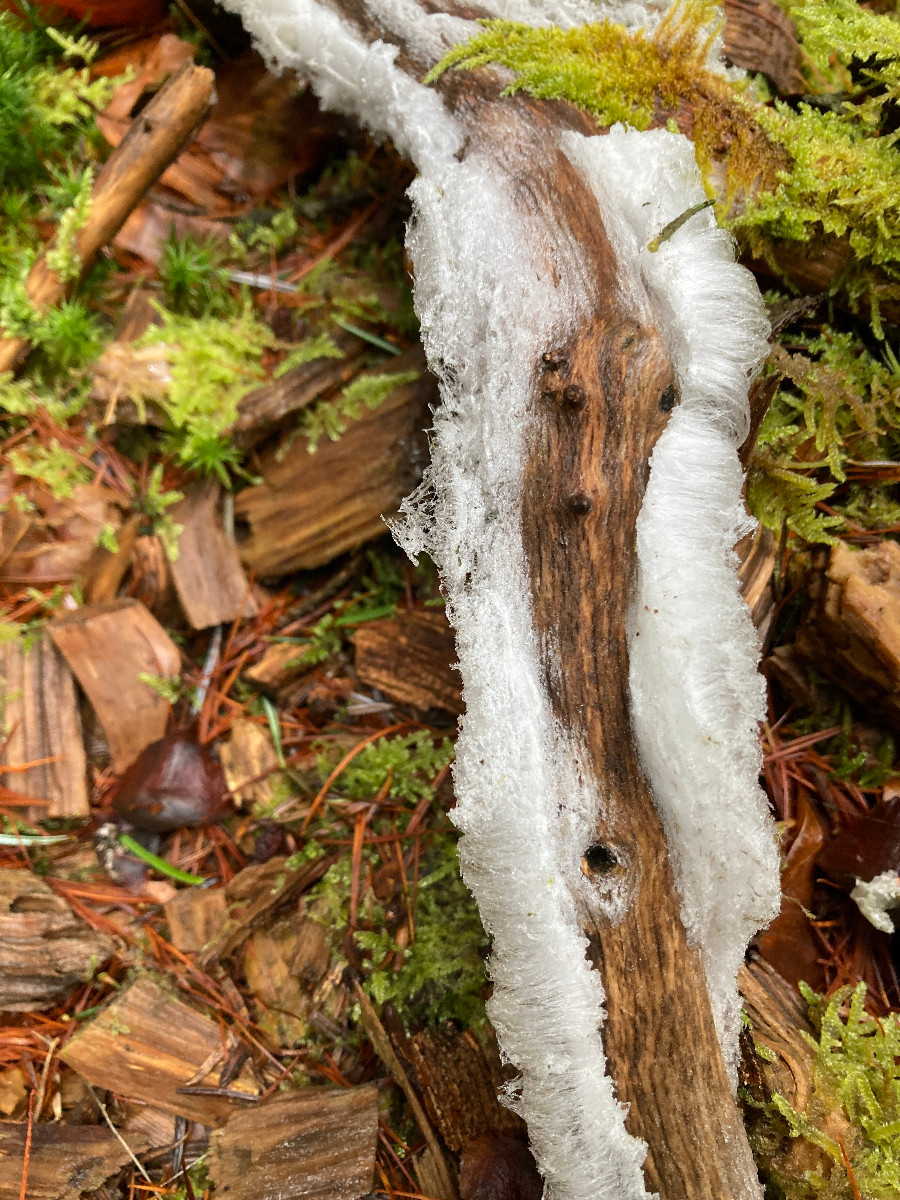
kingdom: Fungi
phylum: Basidiomycota
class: Tremellomycetes
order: Tremellales
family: Exidiaceae
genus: Exidiopsis
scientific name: Exidiopsis effusa
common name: smuk bævrehinde
